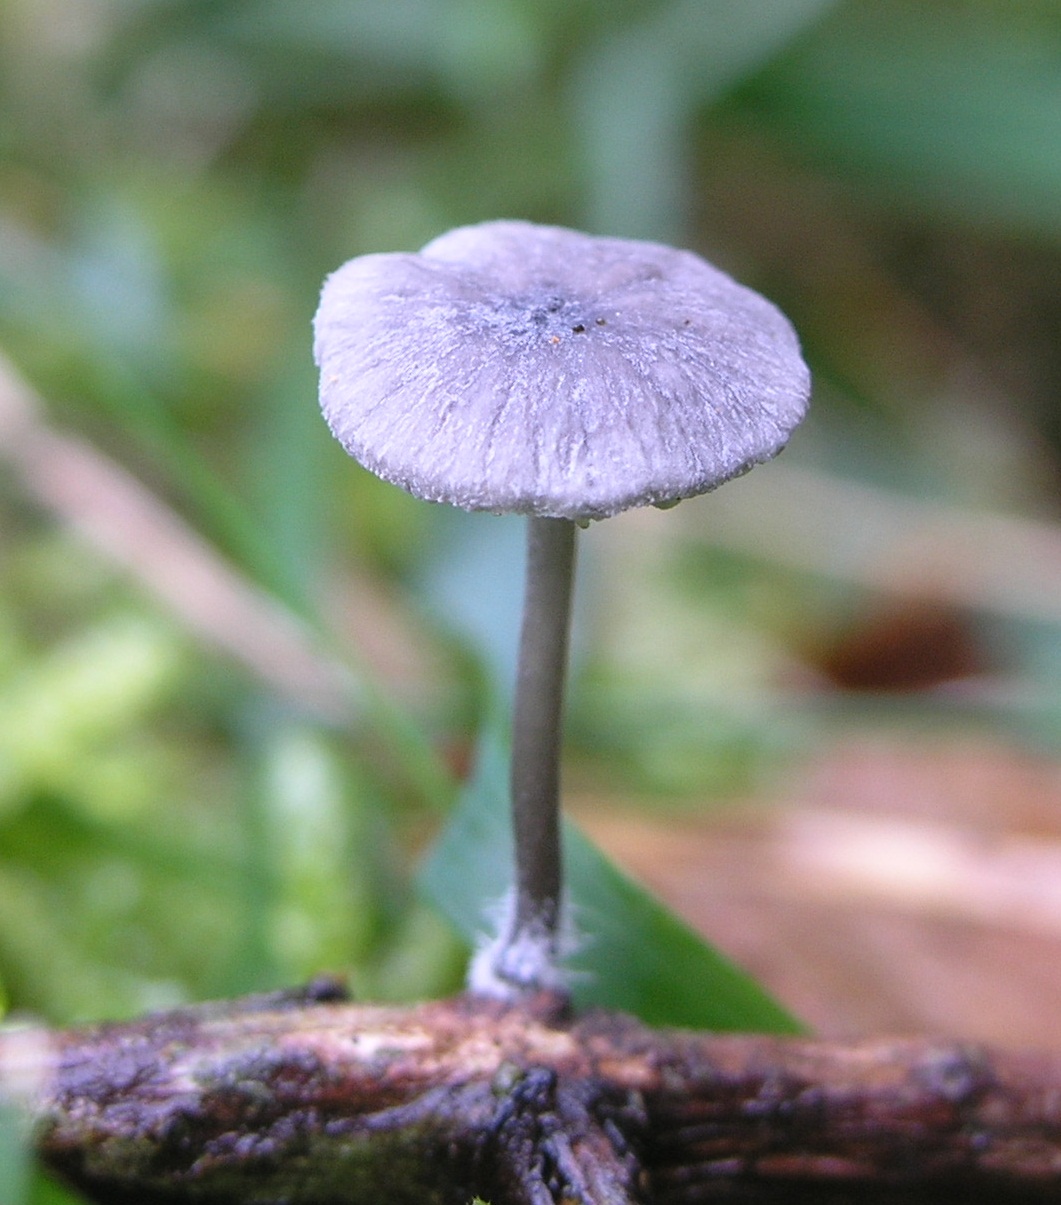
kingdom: Fungi
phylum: Basidiomycota
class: Agaricomycetes
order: Agaricales
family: Mycenaceae
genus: Mycena
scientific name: Mycena pseudocorticola
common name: gråblå bark-huesvamp
